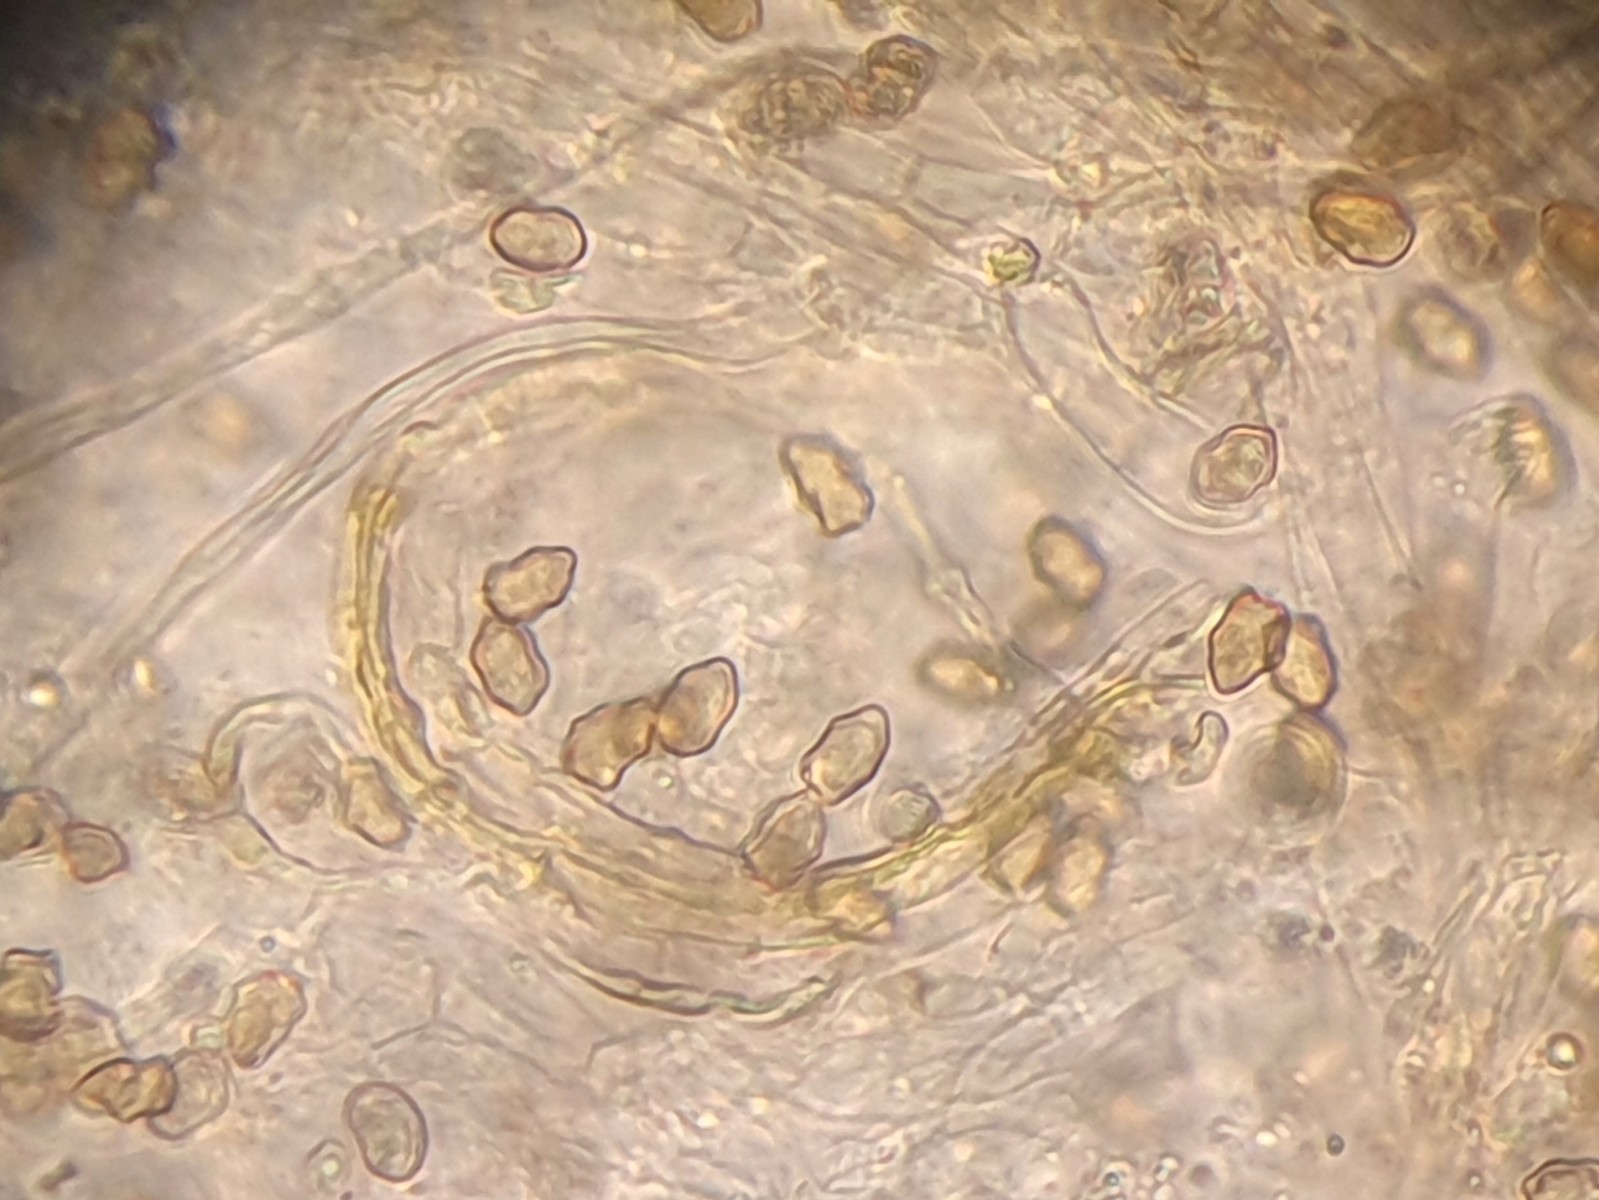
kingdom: Fungi
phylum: Basidiomycota
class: Agaricomycetes
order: Agaricales
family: Inocybaceae
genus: Inocybe
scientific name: Inocybe curvipes
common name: plæne-trævlhat
